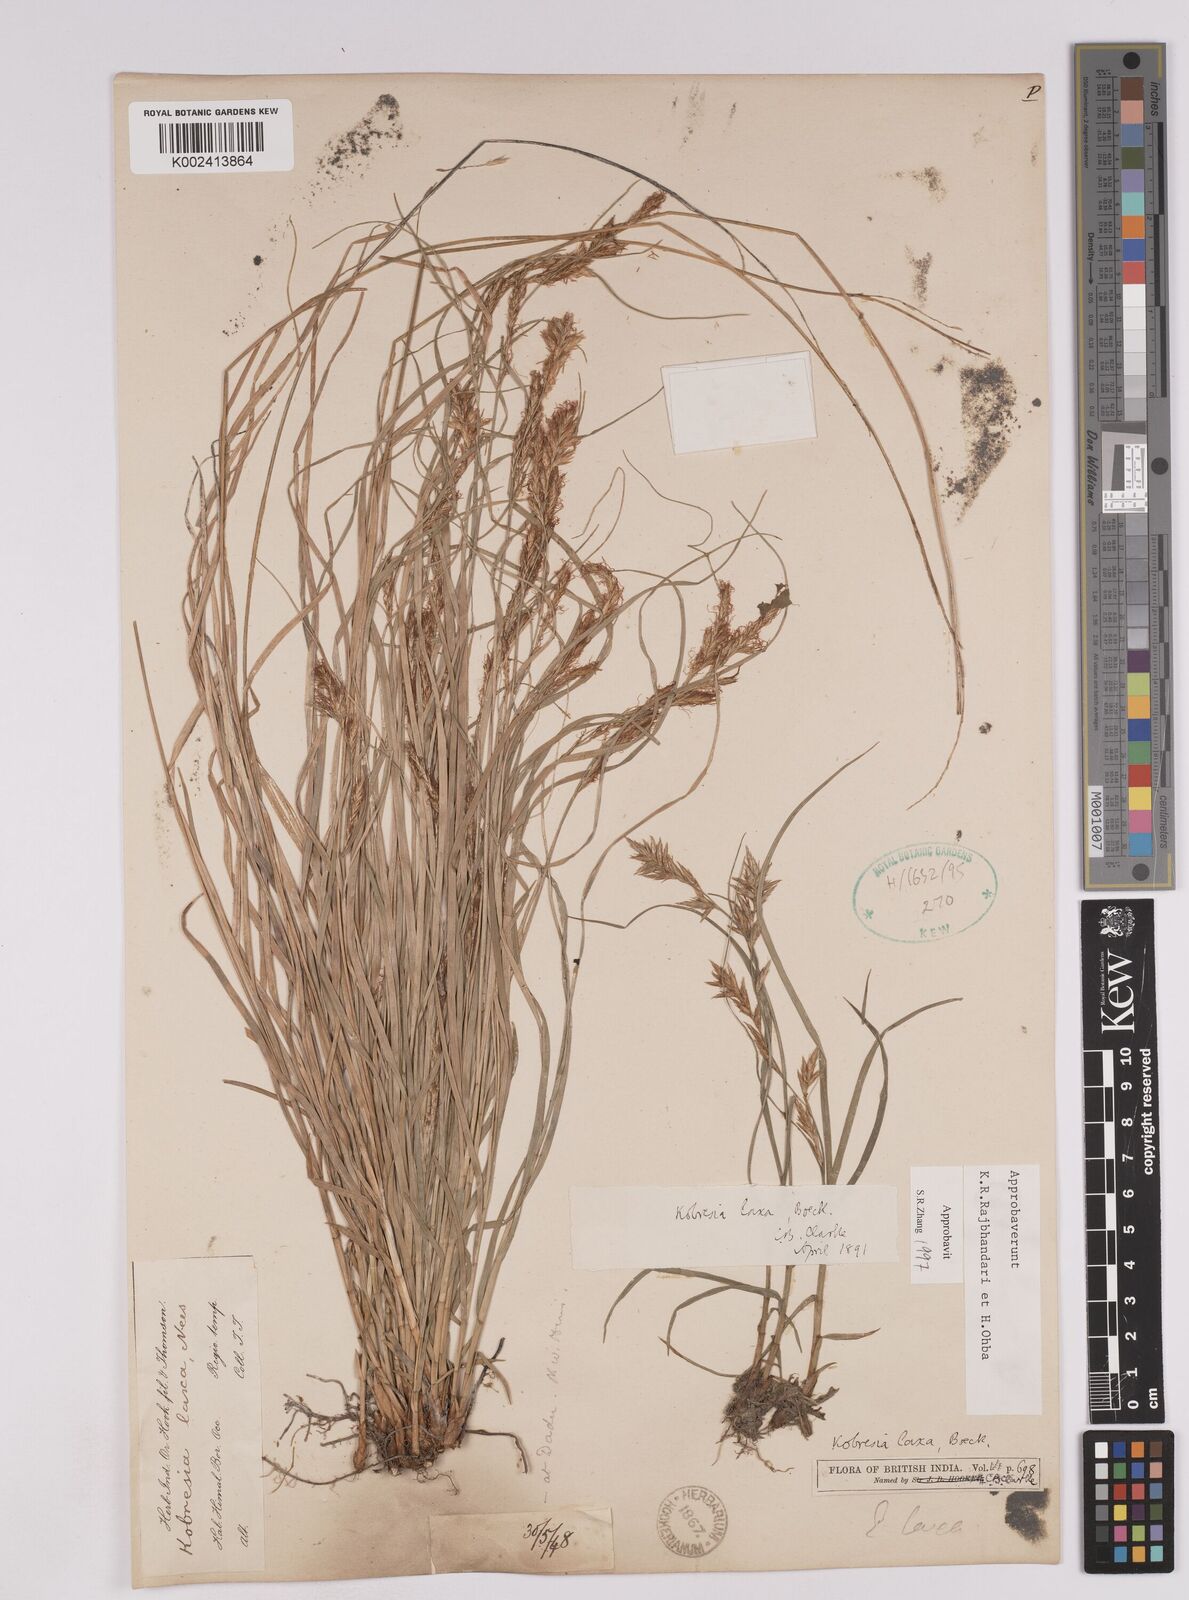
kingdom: Plantae
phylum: Tracheophyta
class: Liliopsida
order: Poales
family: Cyperaceae
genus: Carex
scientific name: Carex pseudolaxa
